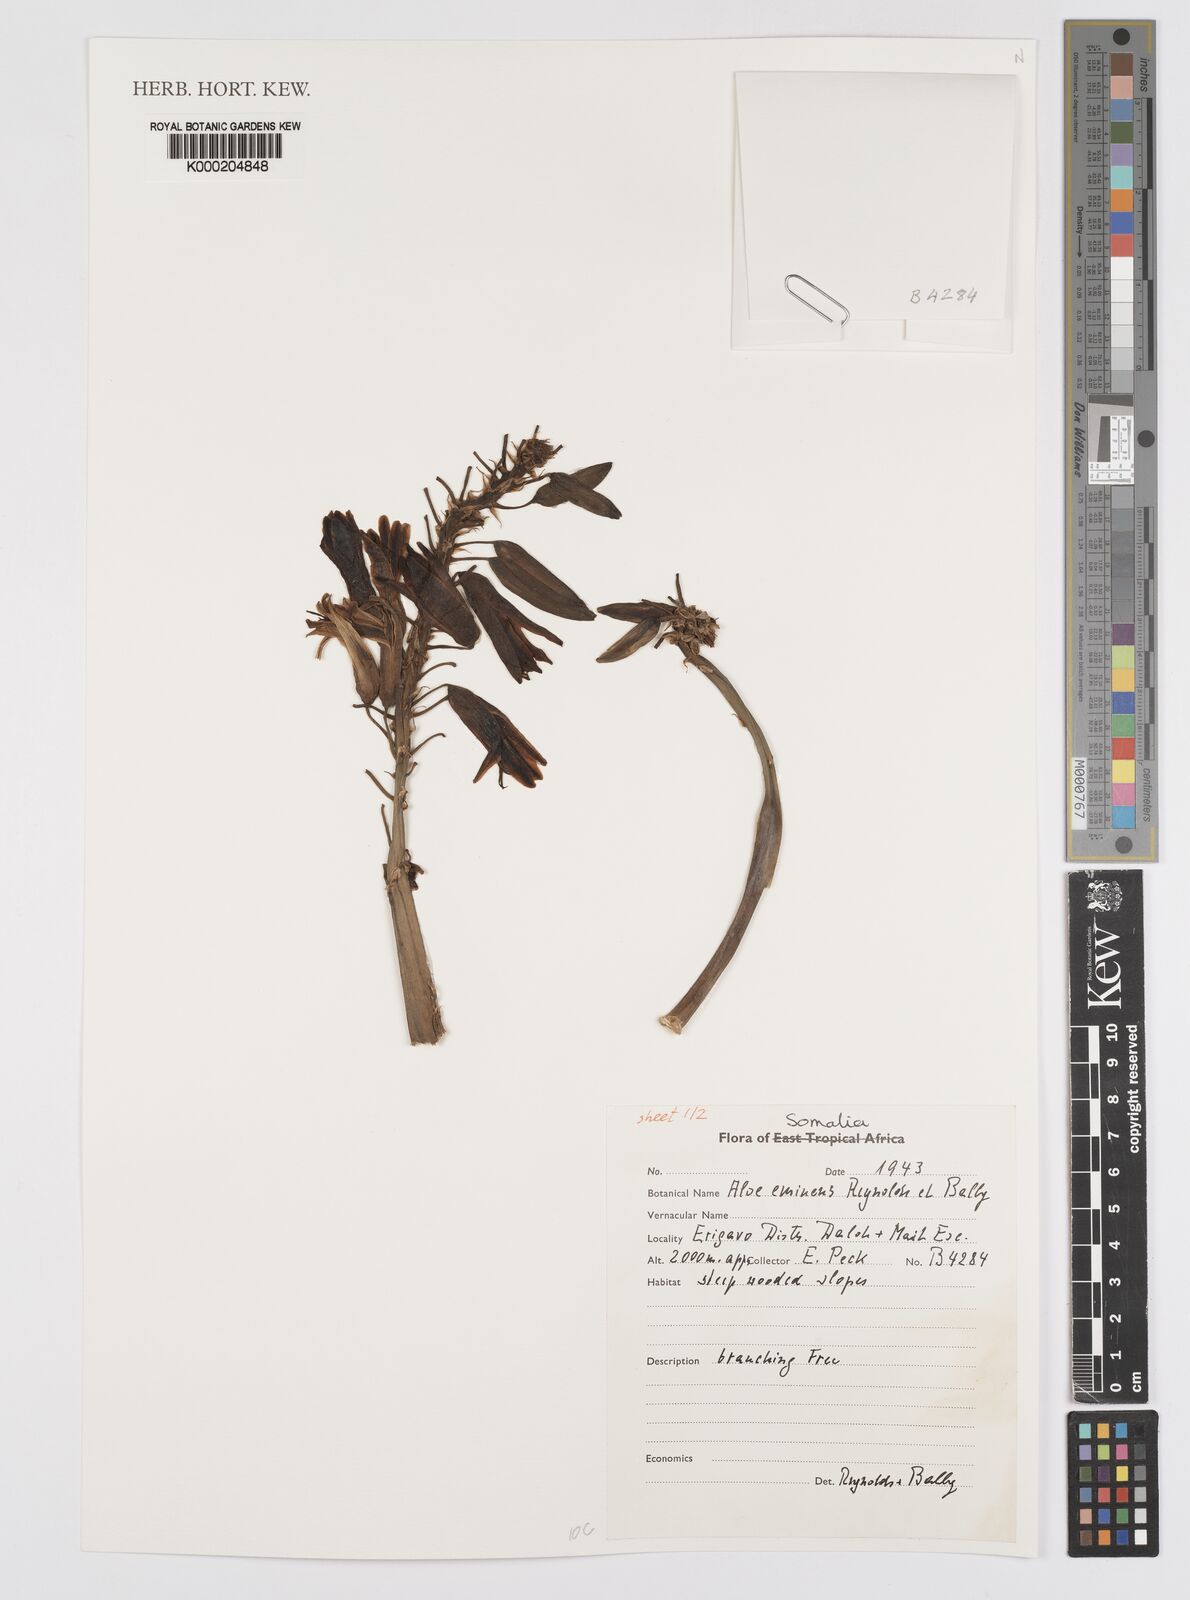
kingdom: Plantae
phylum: Tracheophyta
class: Liliopsida
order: Asparagales
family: Asphodelaceae
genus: Aloidendron
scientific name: Aloidendron eminens
